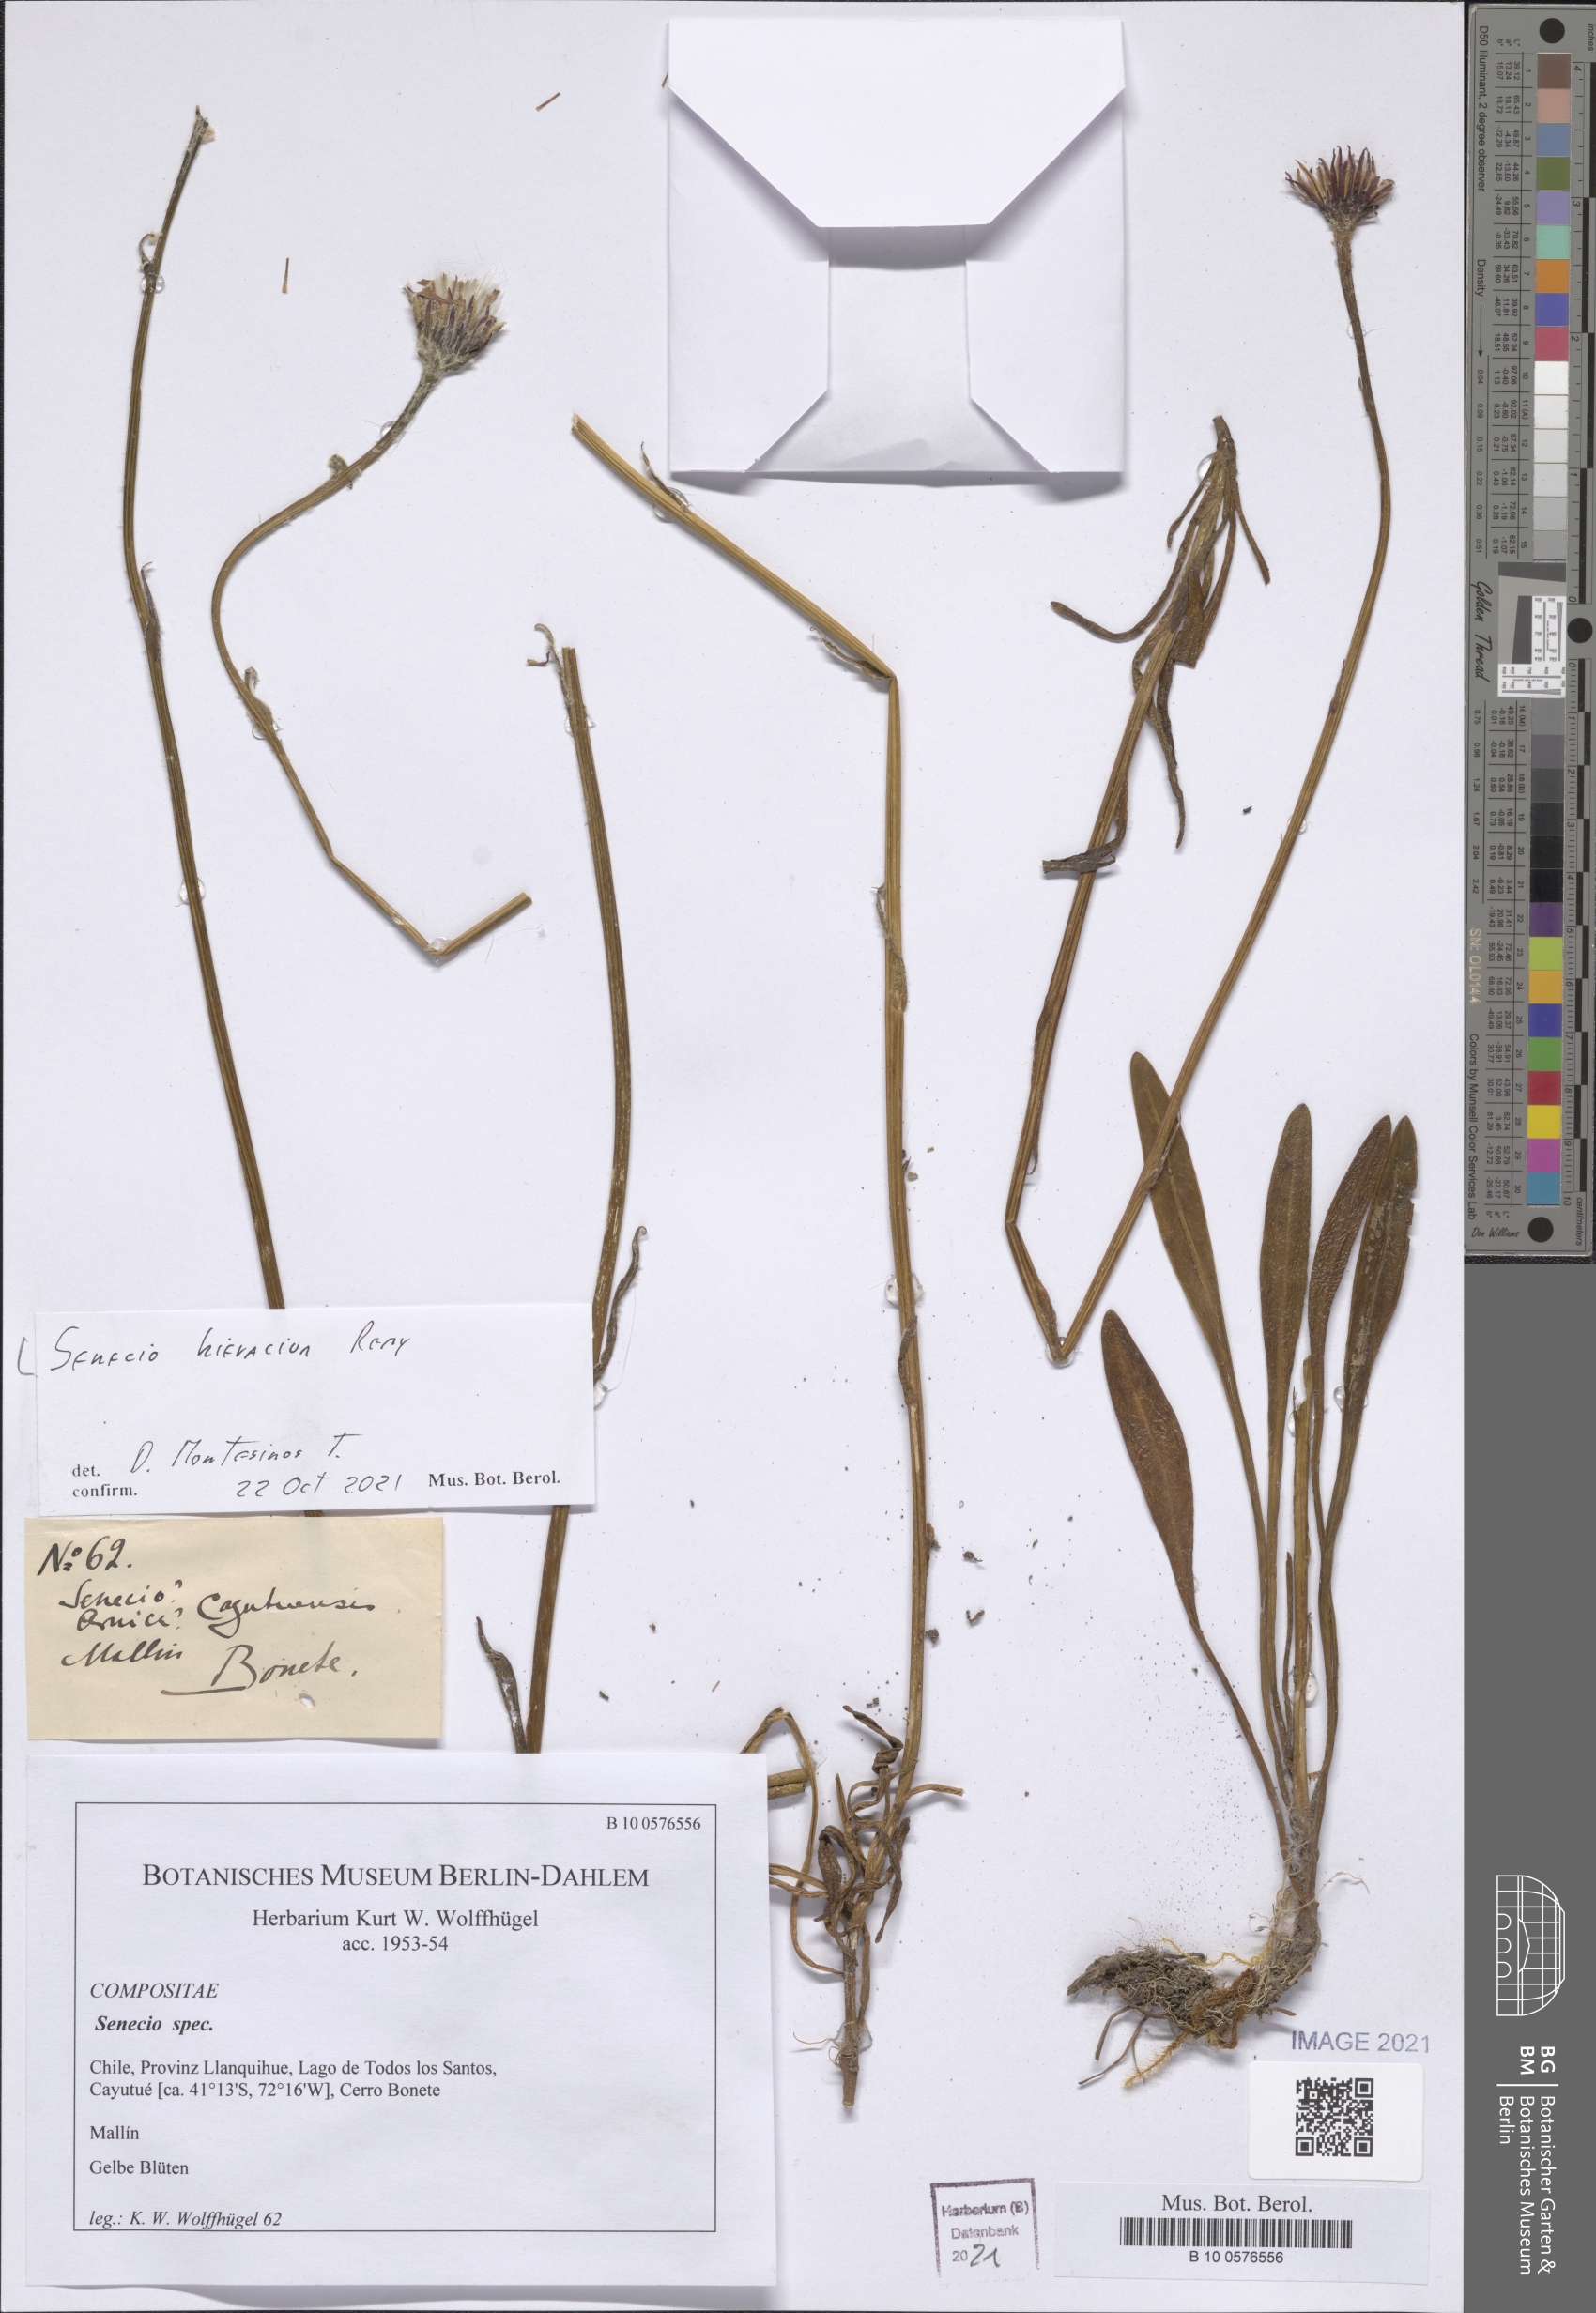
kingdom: Plantae
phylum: Tracheophyta
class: Magnoliopsida
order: Asterales
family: Asteraceae
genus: Senecio
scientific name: Senecio hieracium
